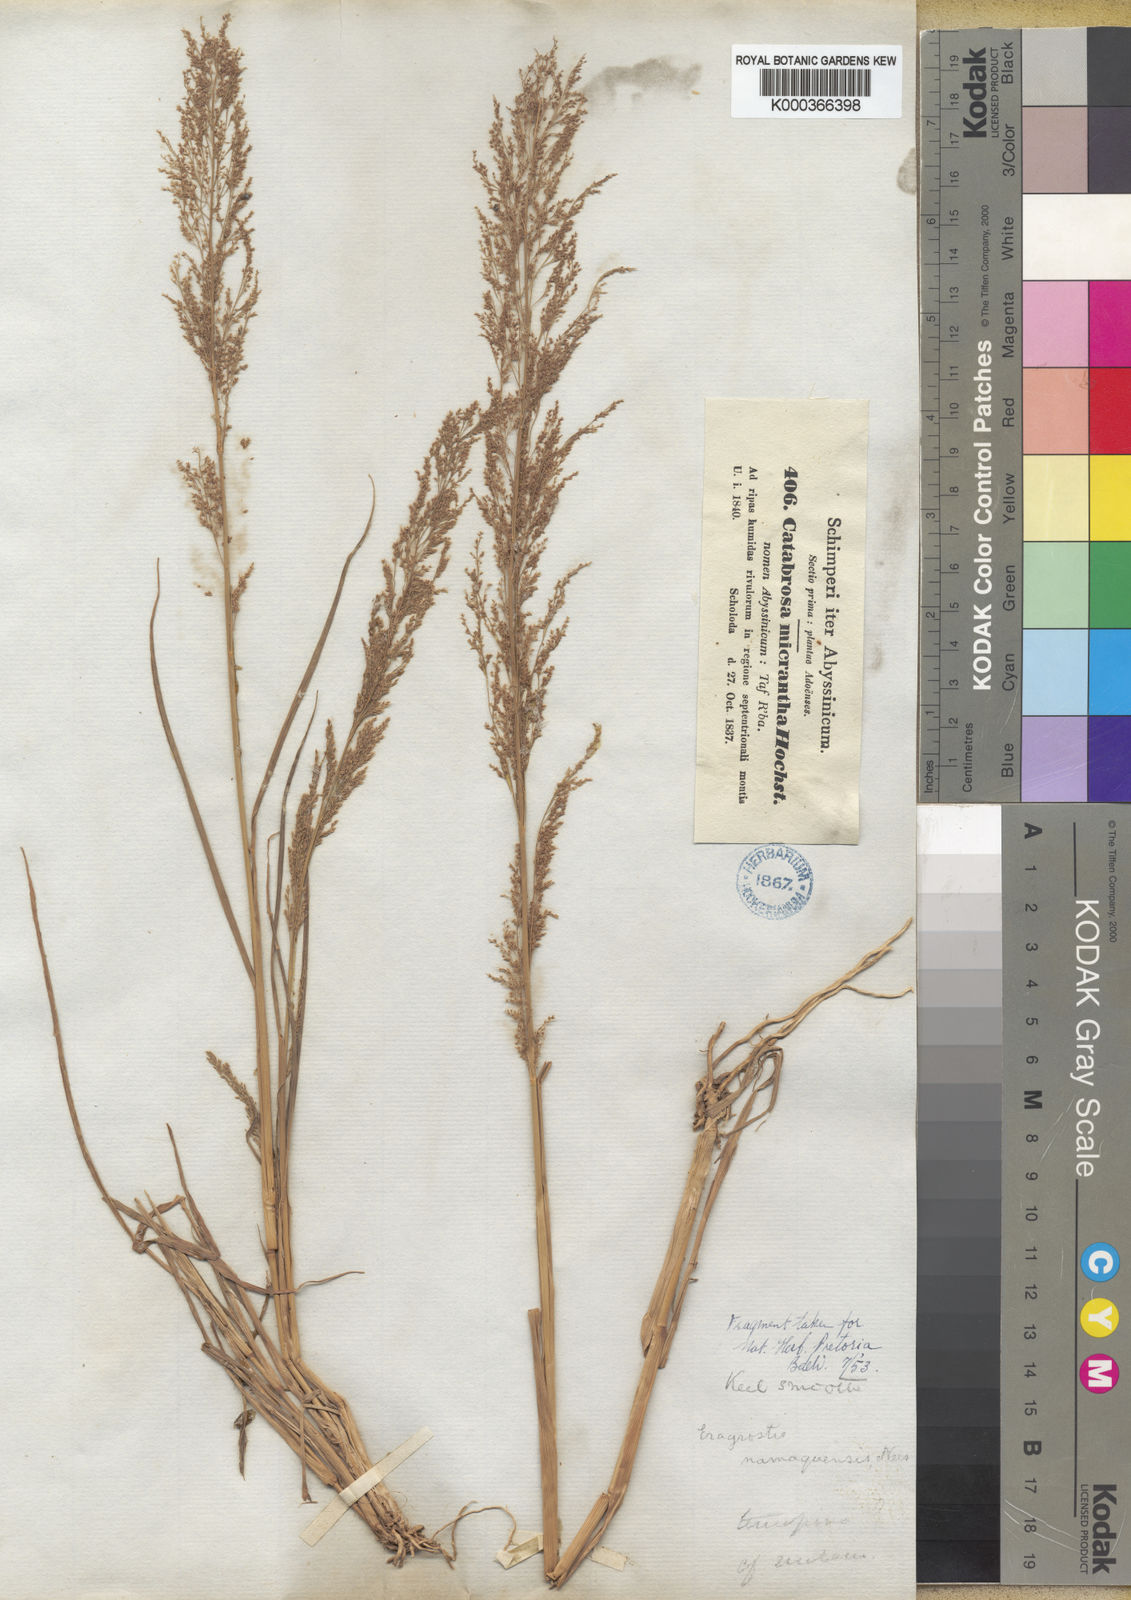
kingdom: Plantae
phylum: Tracheophyta
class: Liliopsida
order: Poales
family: Poaceae
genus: Eragrostis
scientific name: Eragrostis japonica
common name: Pond lovegrass
